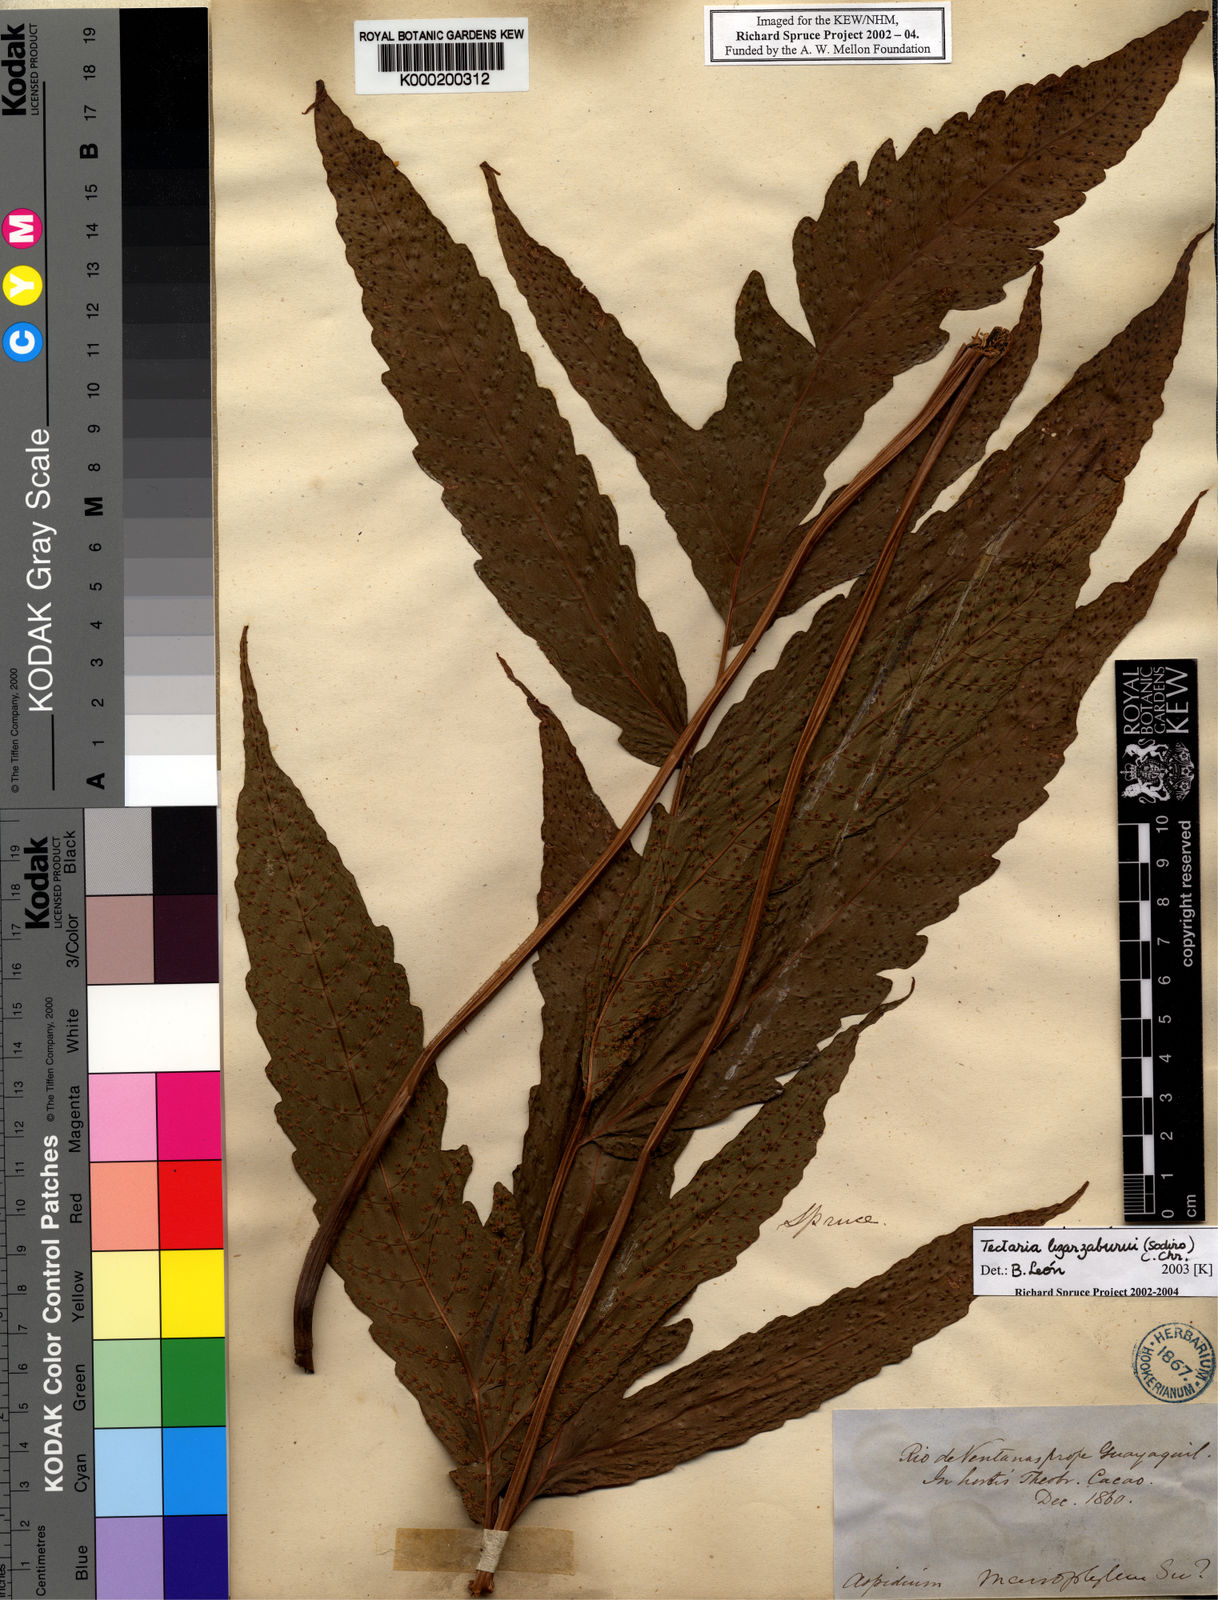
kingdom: Plantae
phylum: Tracheophyta
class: Polypodiopsida
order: Polypodiales
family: Tectariaceae
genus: Tectaria
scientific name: Tectaria
